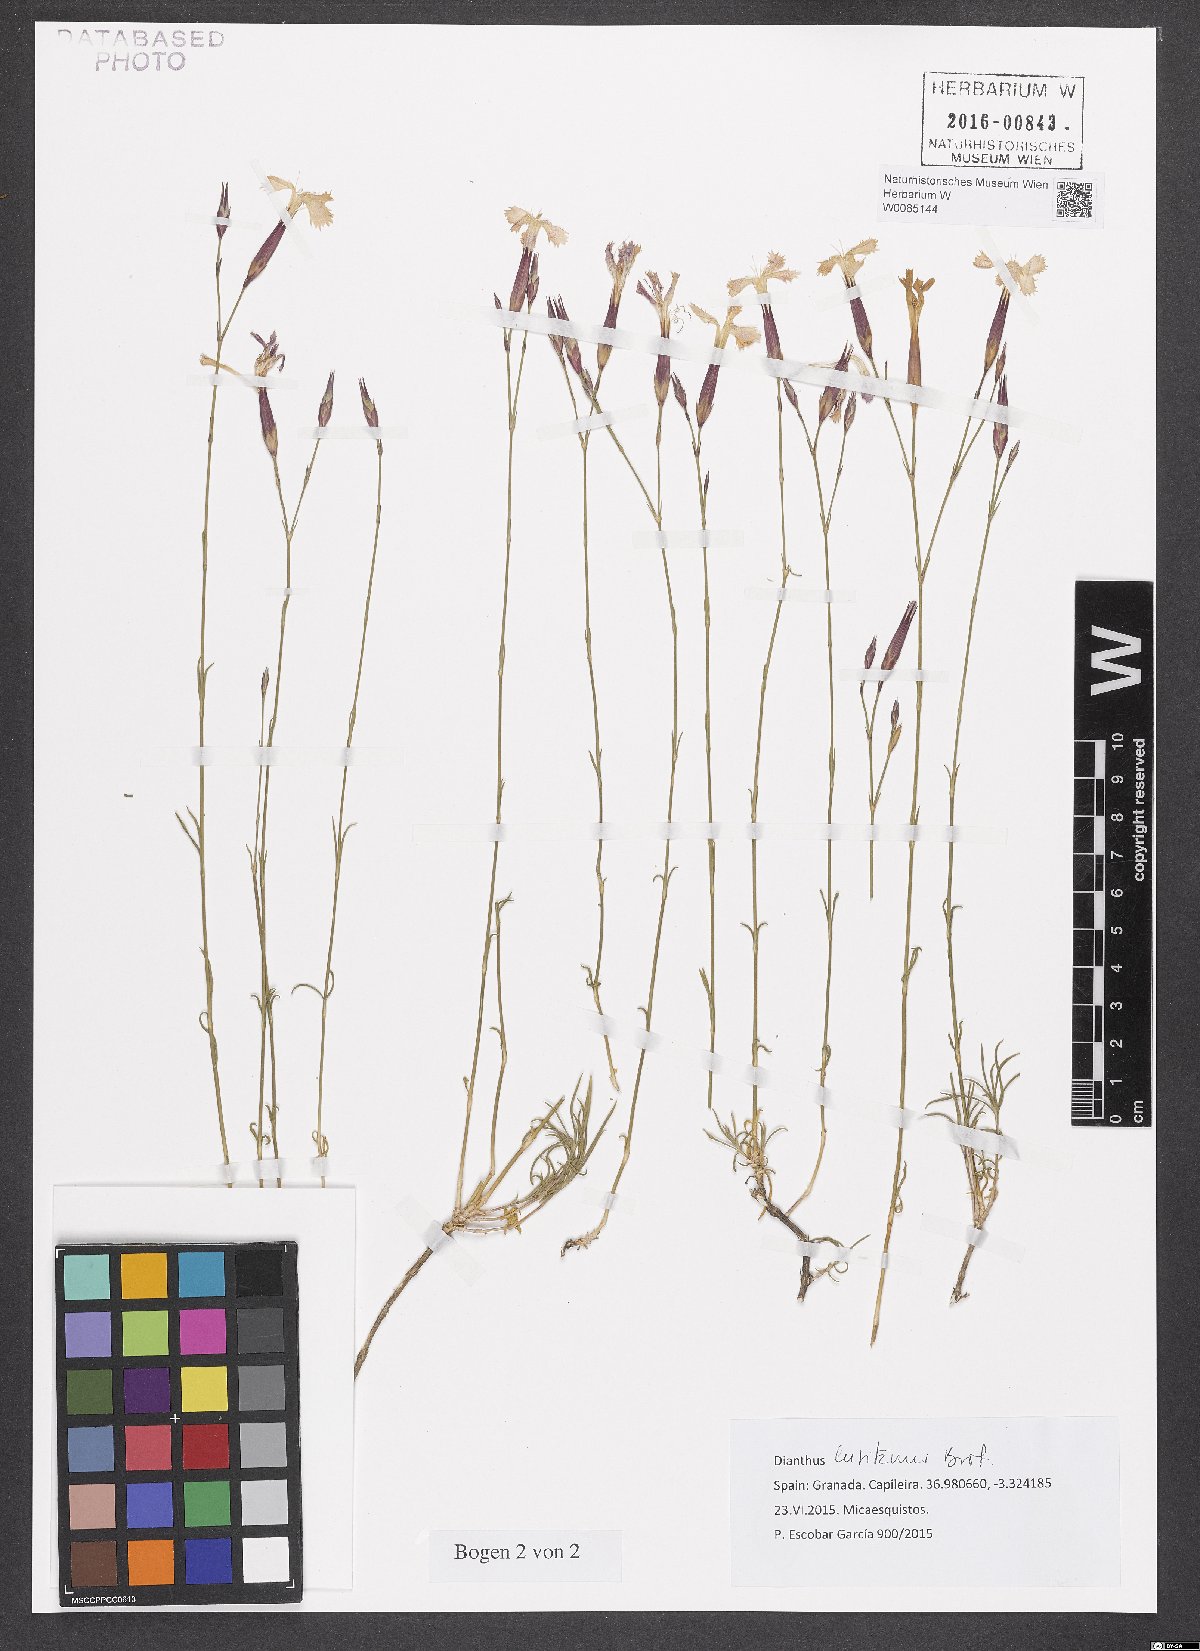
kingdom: Plantae
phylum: Tracheophyta
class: Magnoliopsida
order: Caryophyllales
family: Caryophyllaceae
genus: Dianthus
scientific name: Dianthus lusitanus
